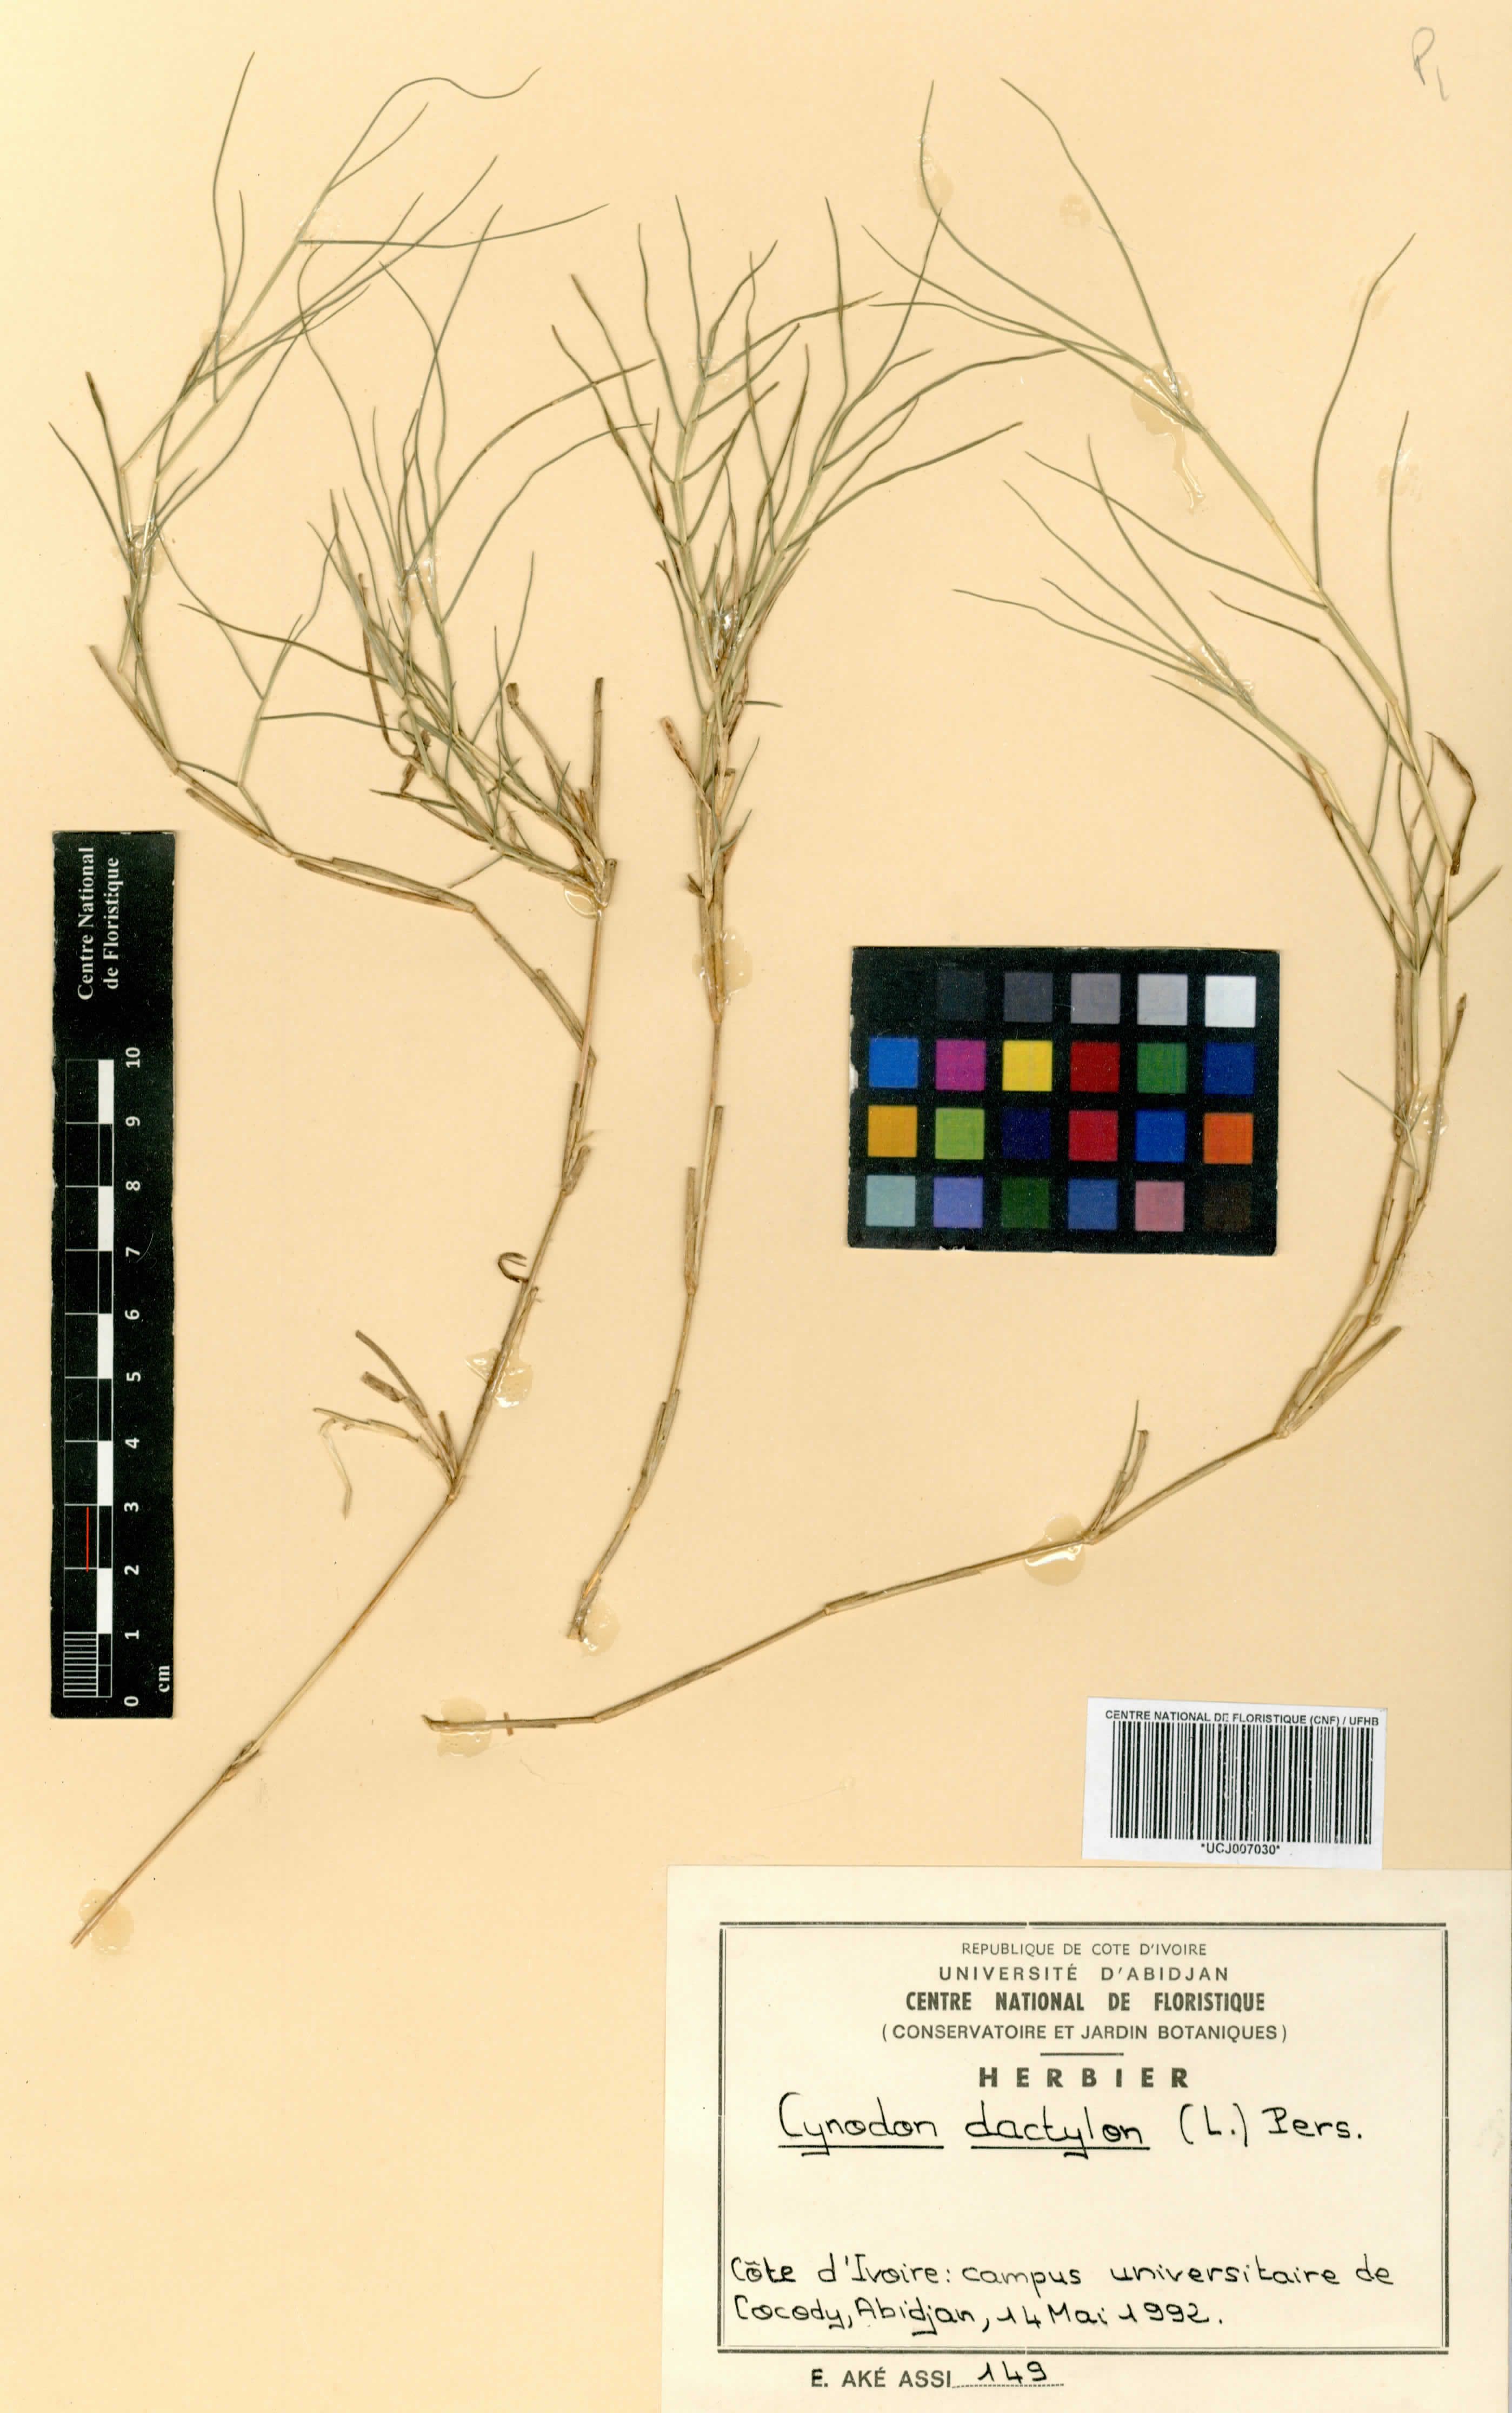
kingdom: Plantae
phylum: Tracheophyta
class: Liliopsida
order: Poales
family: Poaceae
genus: Cynodon
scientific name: Cynodon dactylon
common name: Bermuda grass
